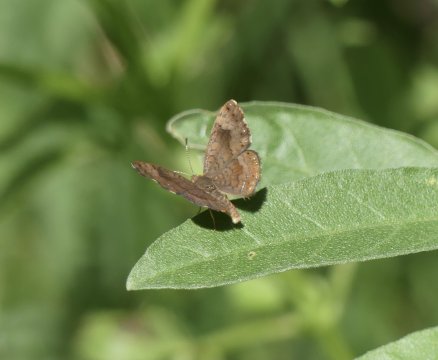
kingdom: Animalia
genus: Calephelis
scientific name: Calephelis nemesis
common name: Fatal Metalmark
